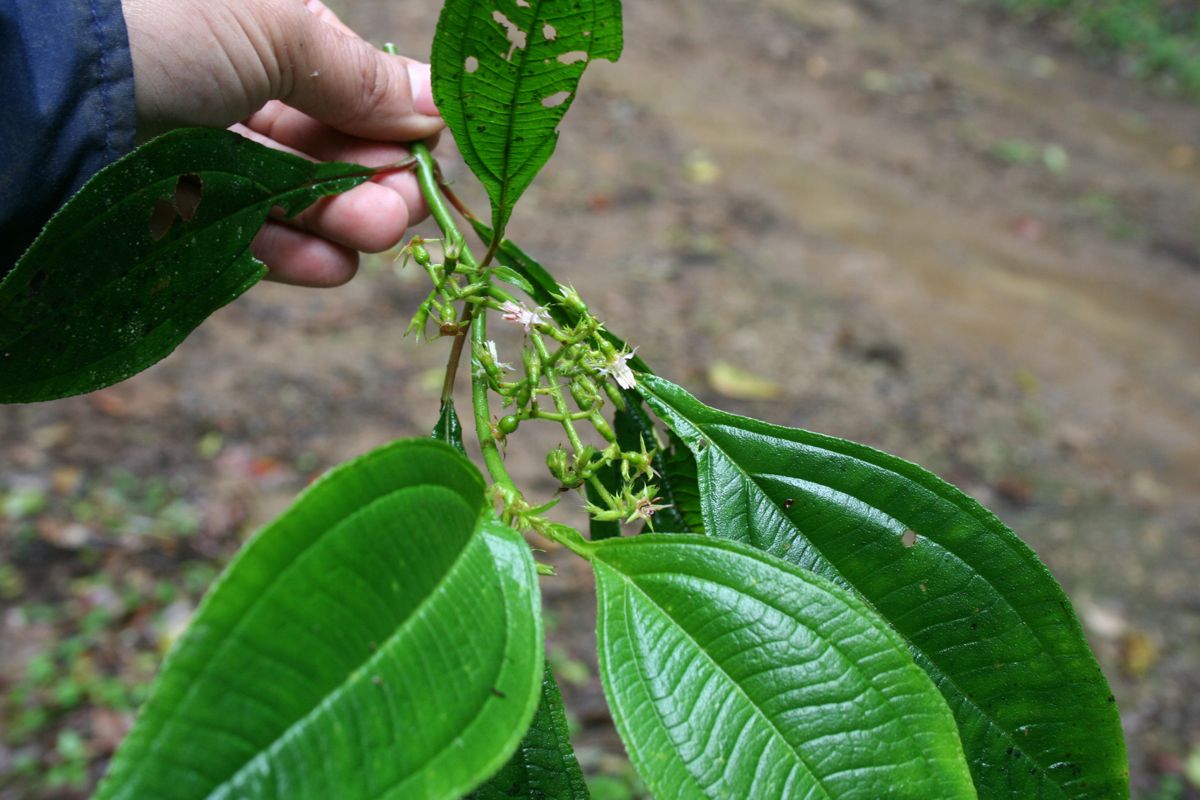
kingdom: Plantae
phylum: Tracheophyta
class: Magnoliopsida
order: Myrtales
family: Melastomataceae
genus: Miconia
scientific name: Miconia oocarpa
